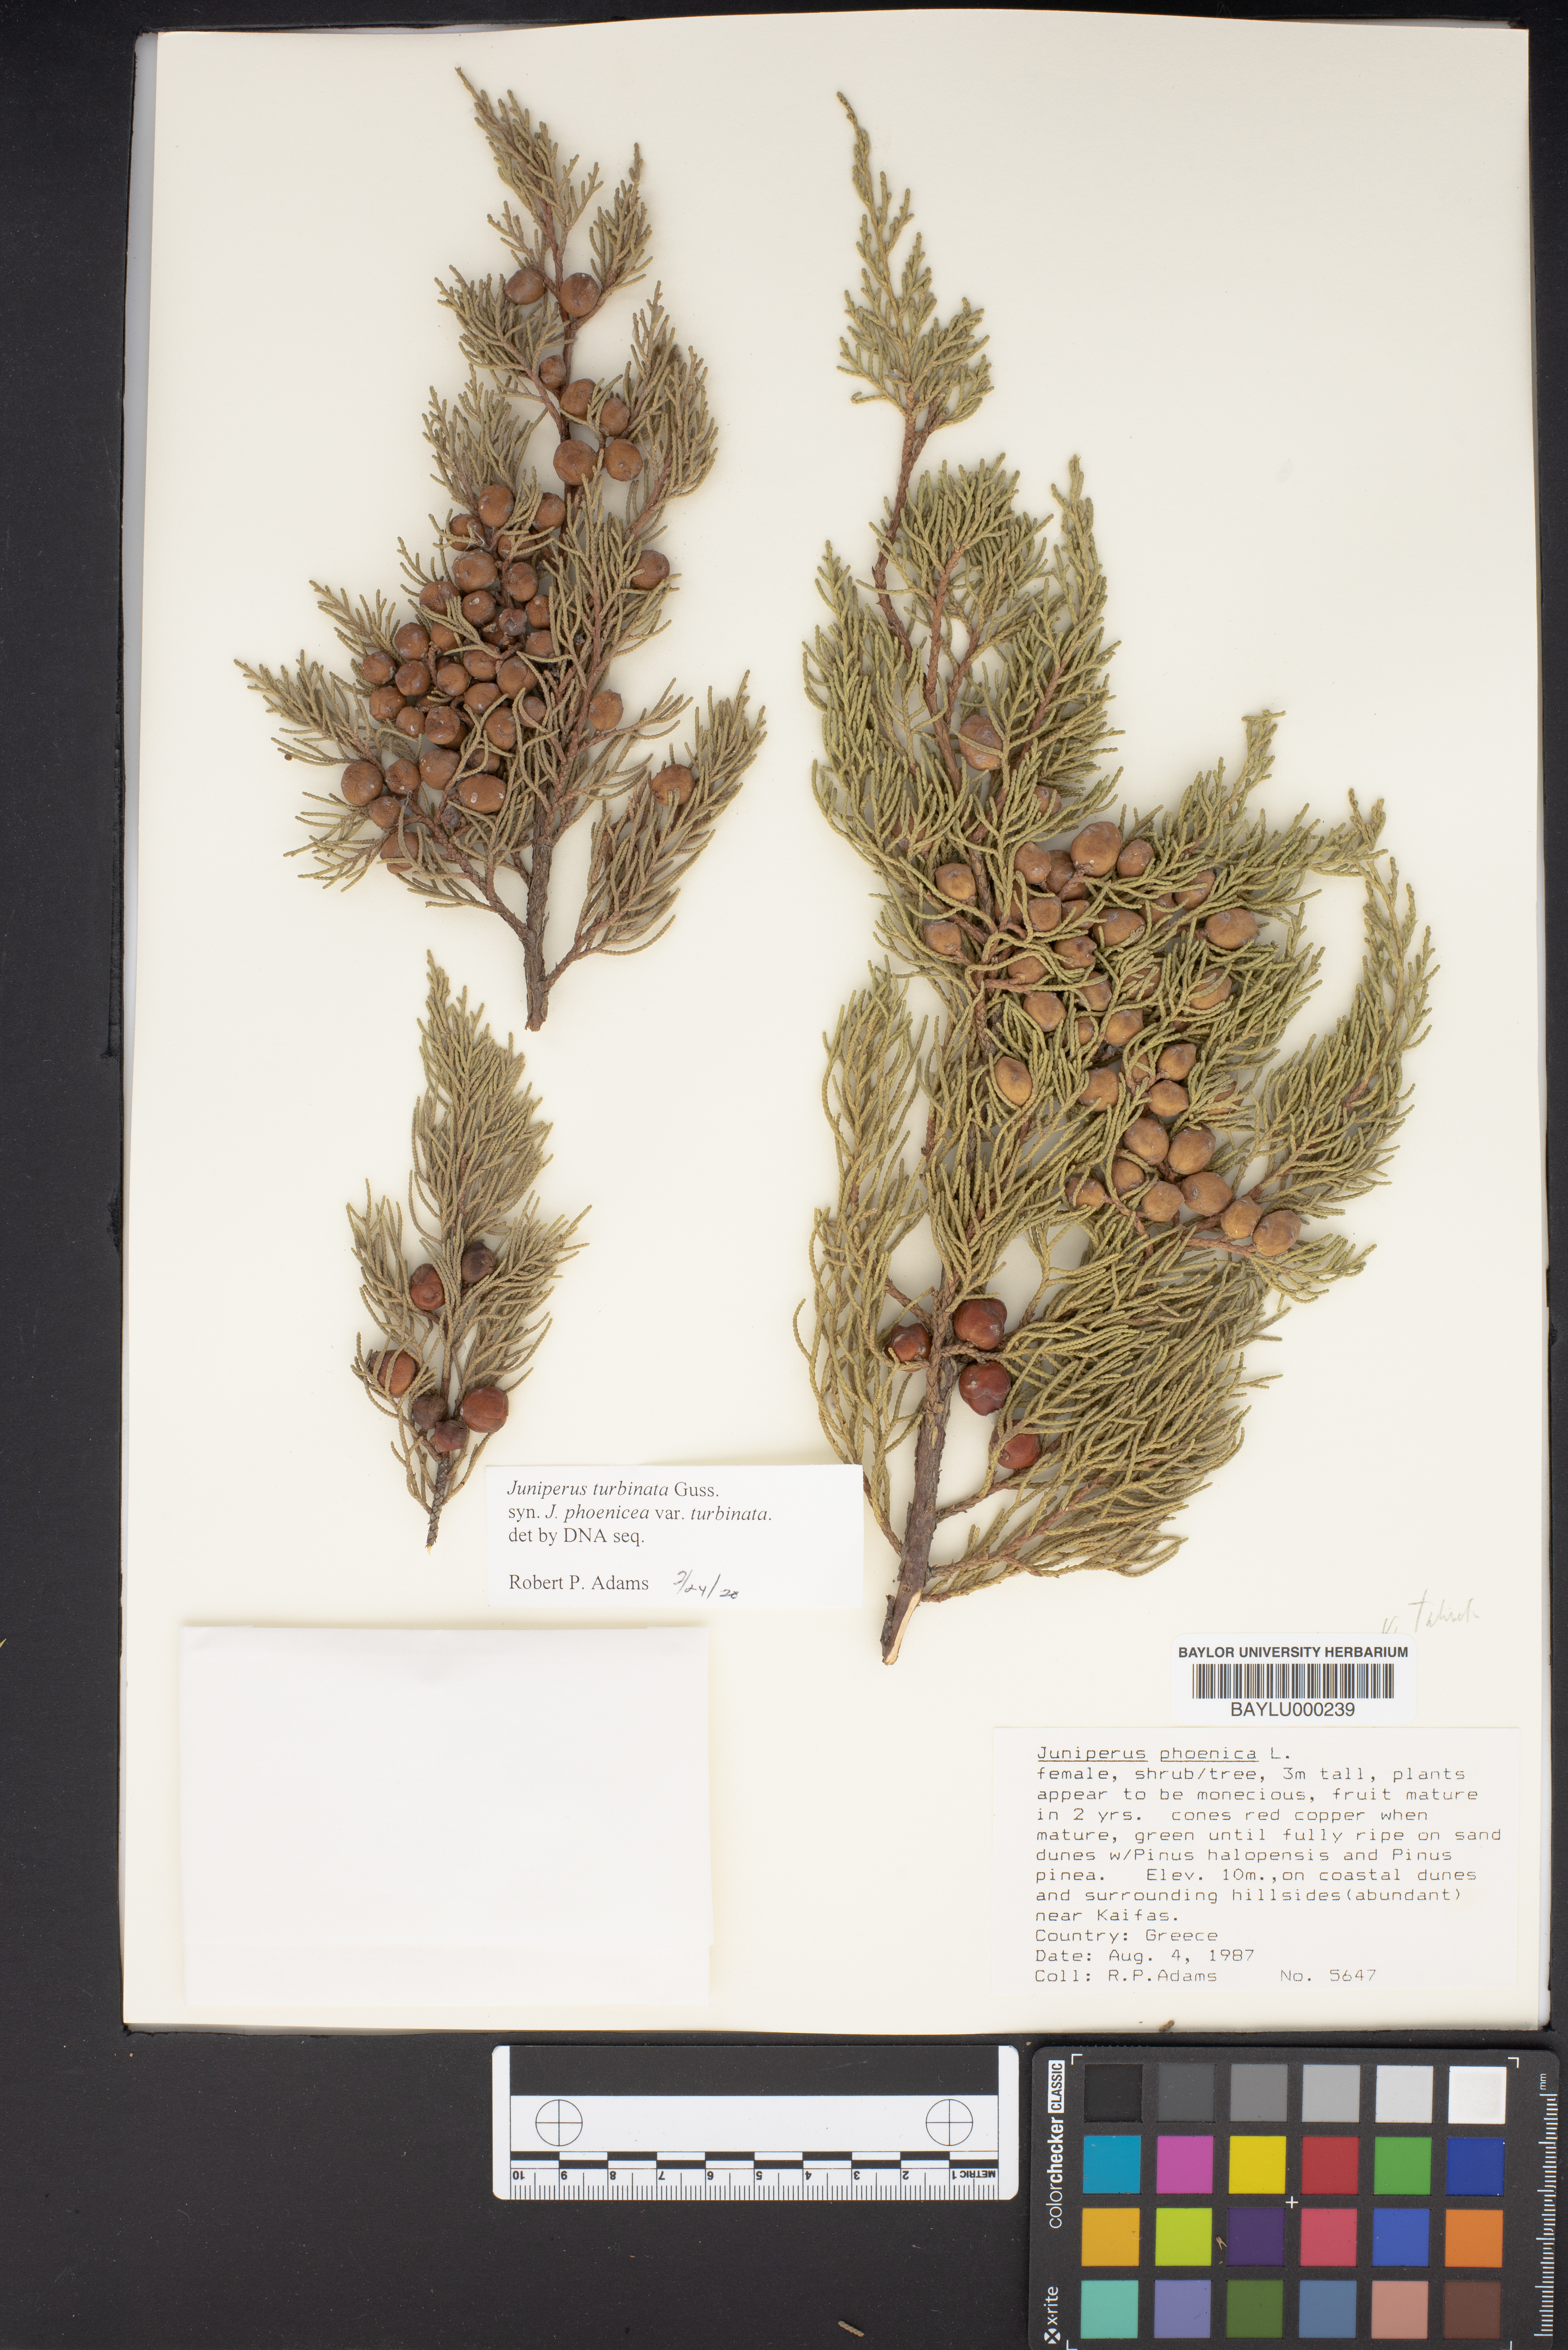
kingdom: Plantae
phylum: Tracheophyta
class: Pinopsida
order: Pinales
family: Cupressaceae
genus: Juniperus
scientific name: Juniperus phoenicea
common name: Phoenician juniper
